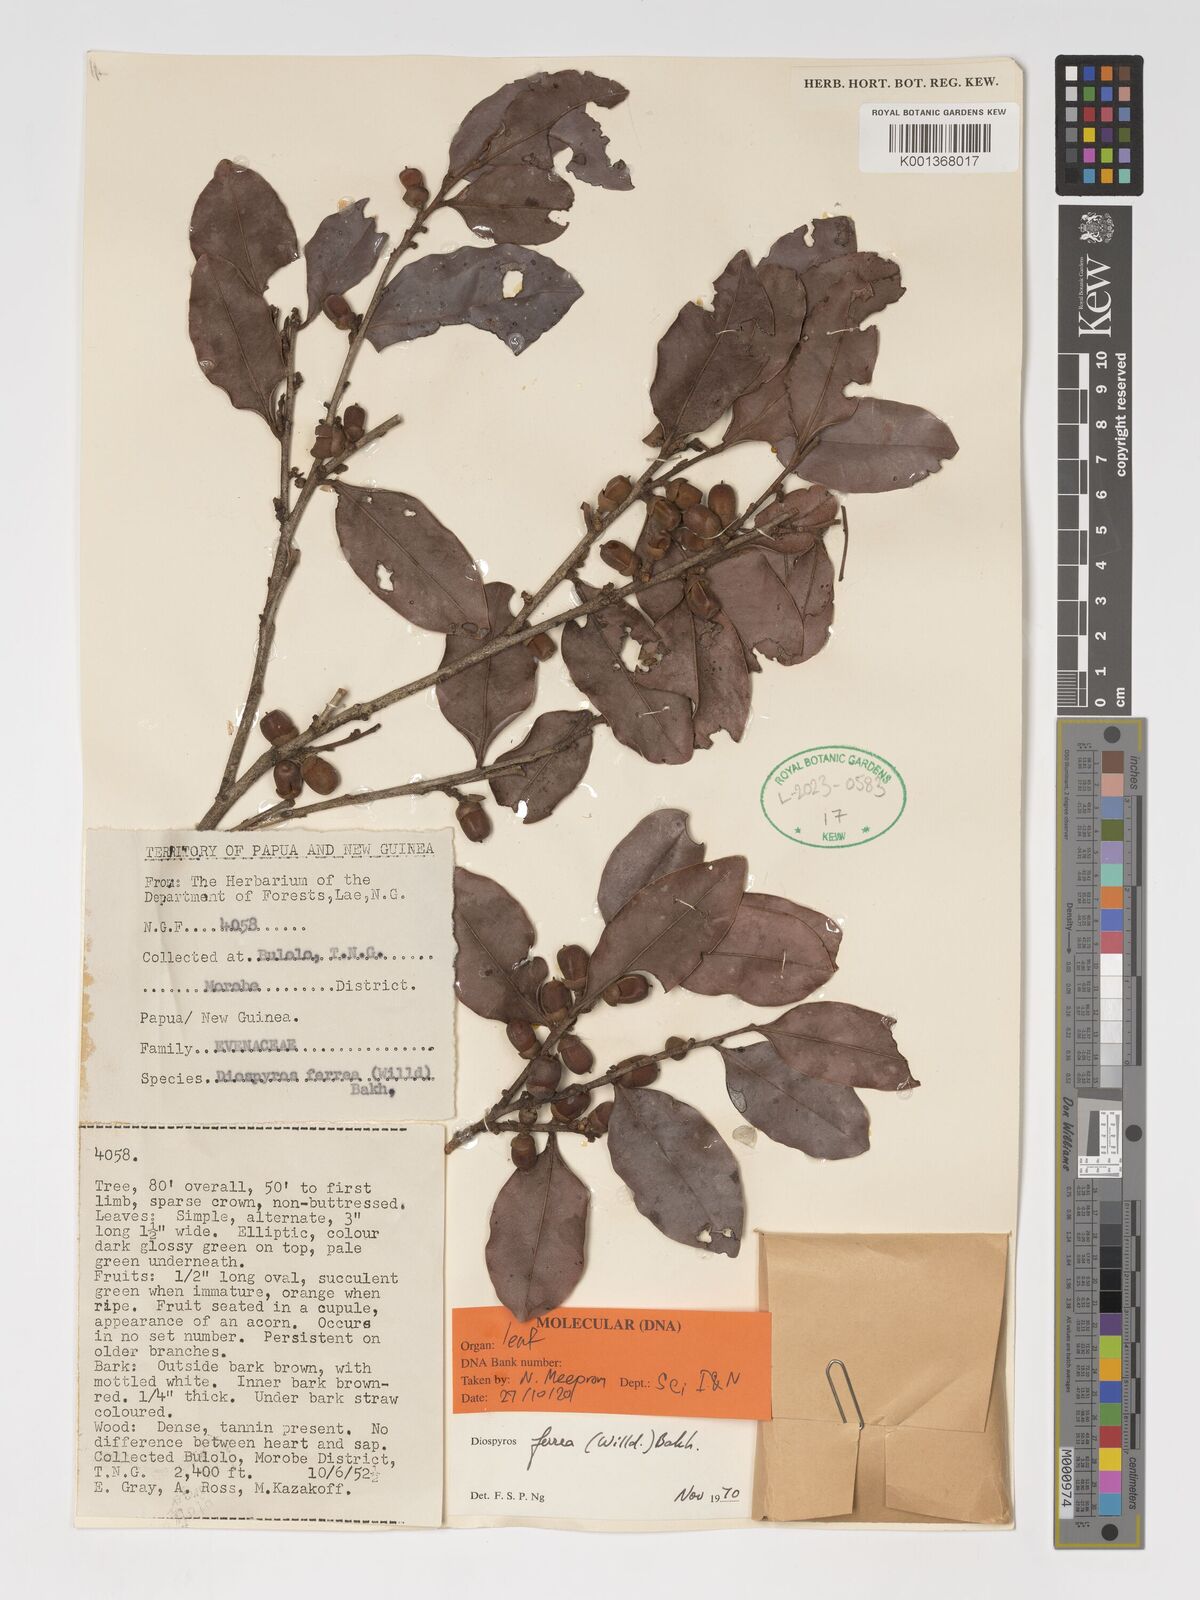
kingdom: Plantae
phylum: Tracheophyta
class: Magnoliopsida
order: Ericales
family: Ebenaceae
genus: Diospyros
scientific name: Diospyros ferrea
